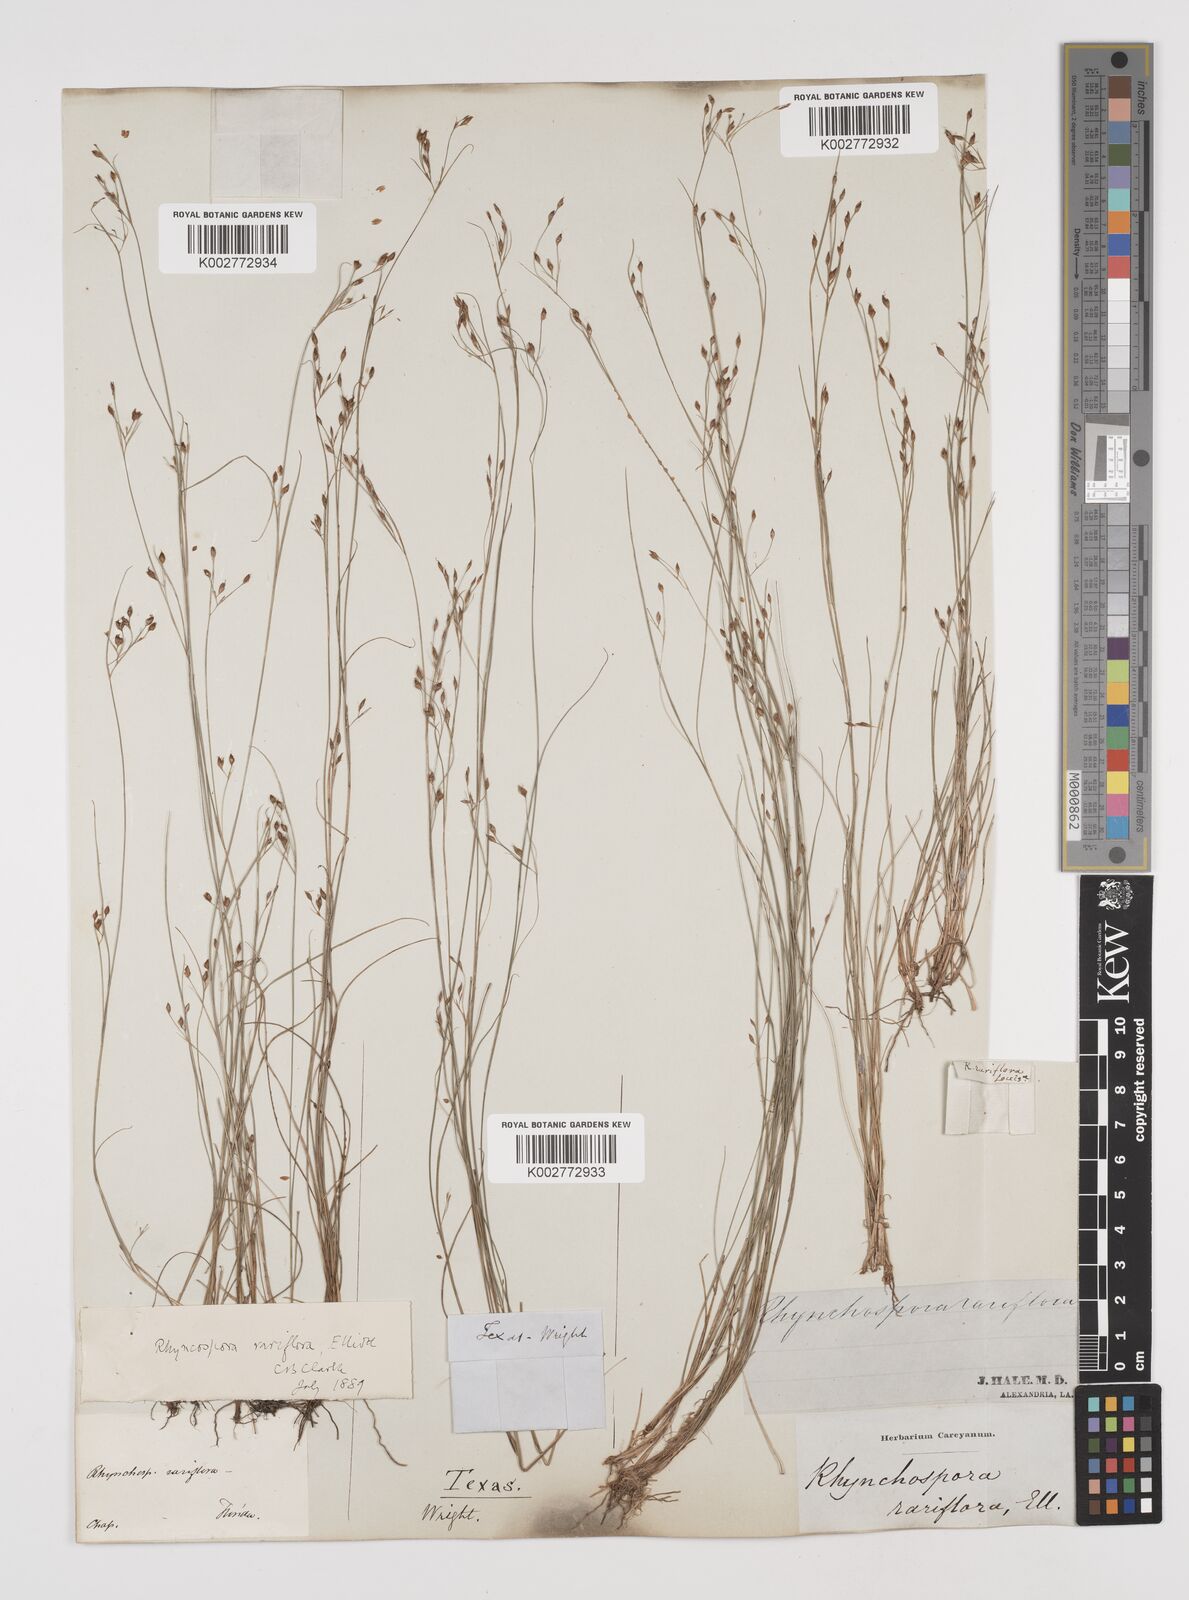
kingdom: Plantae
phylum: Tracheophyta
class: Liliopsida
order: Poales
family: Cyperaceae
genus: Rhynchospora
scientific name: Rhynchospora rariflora
